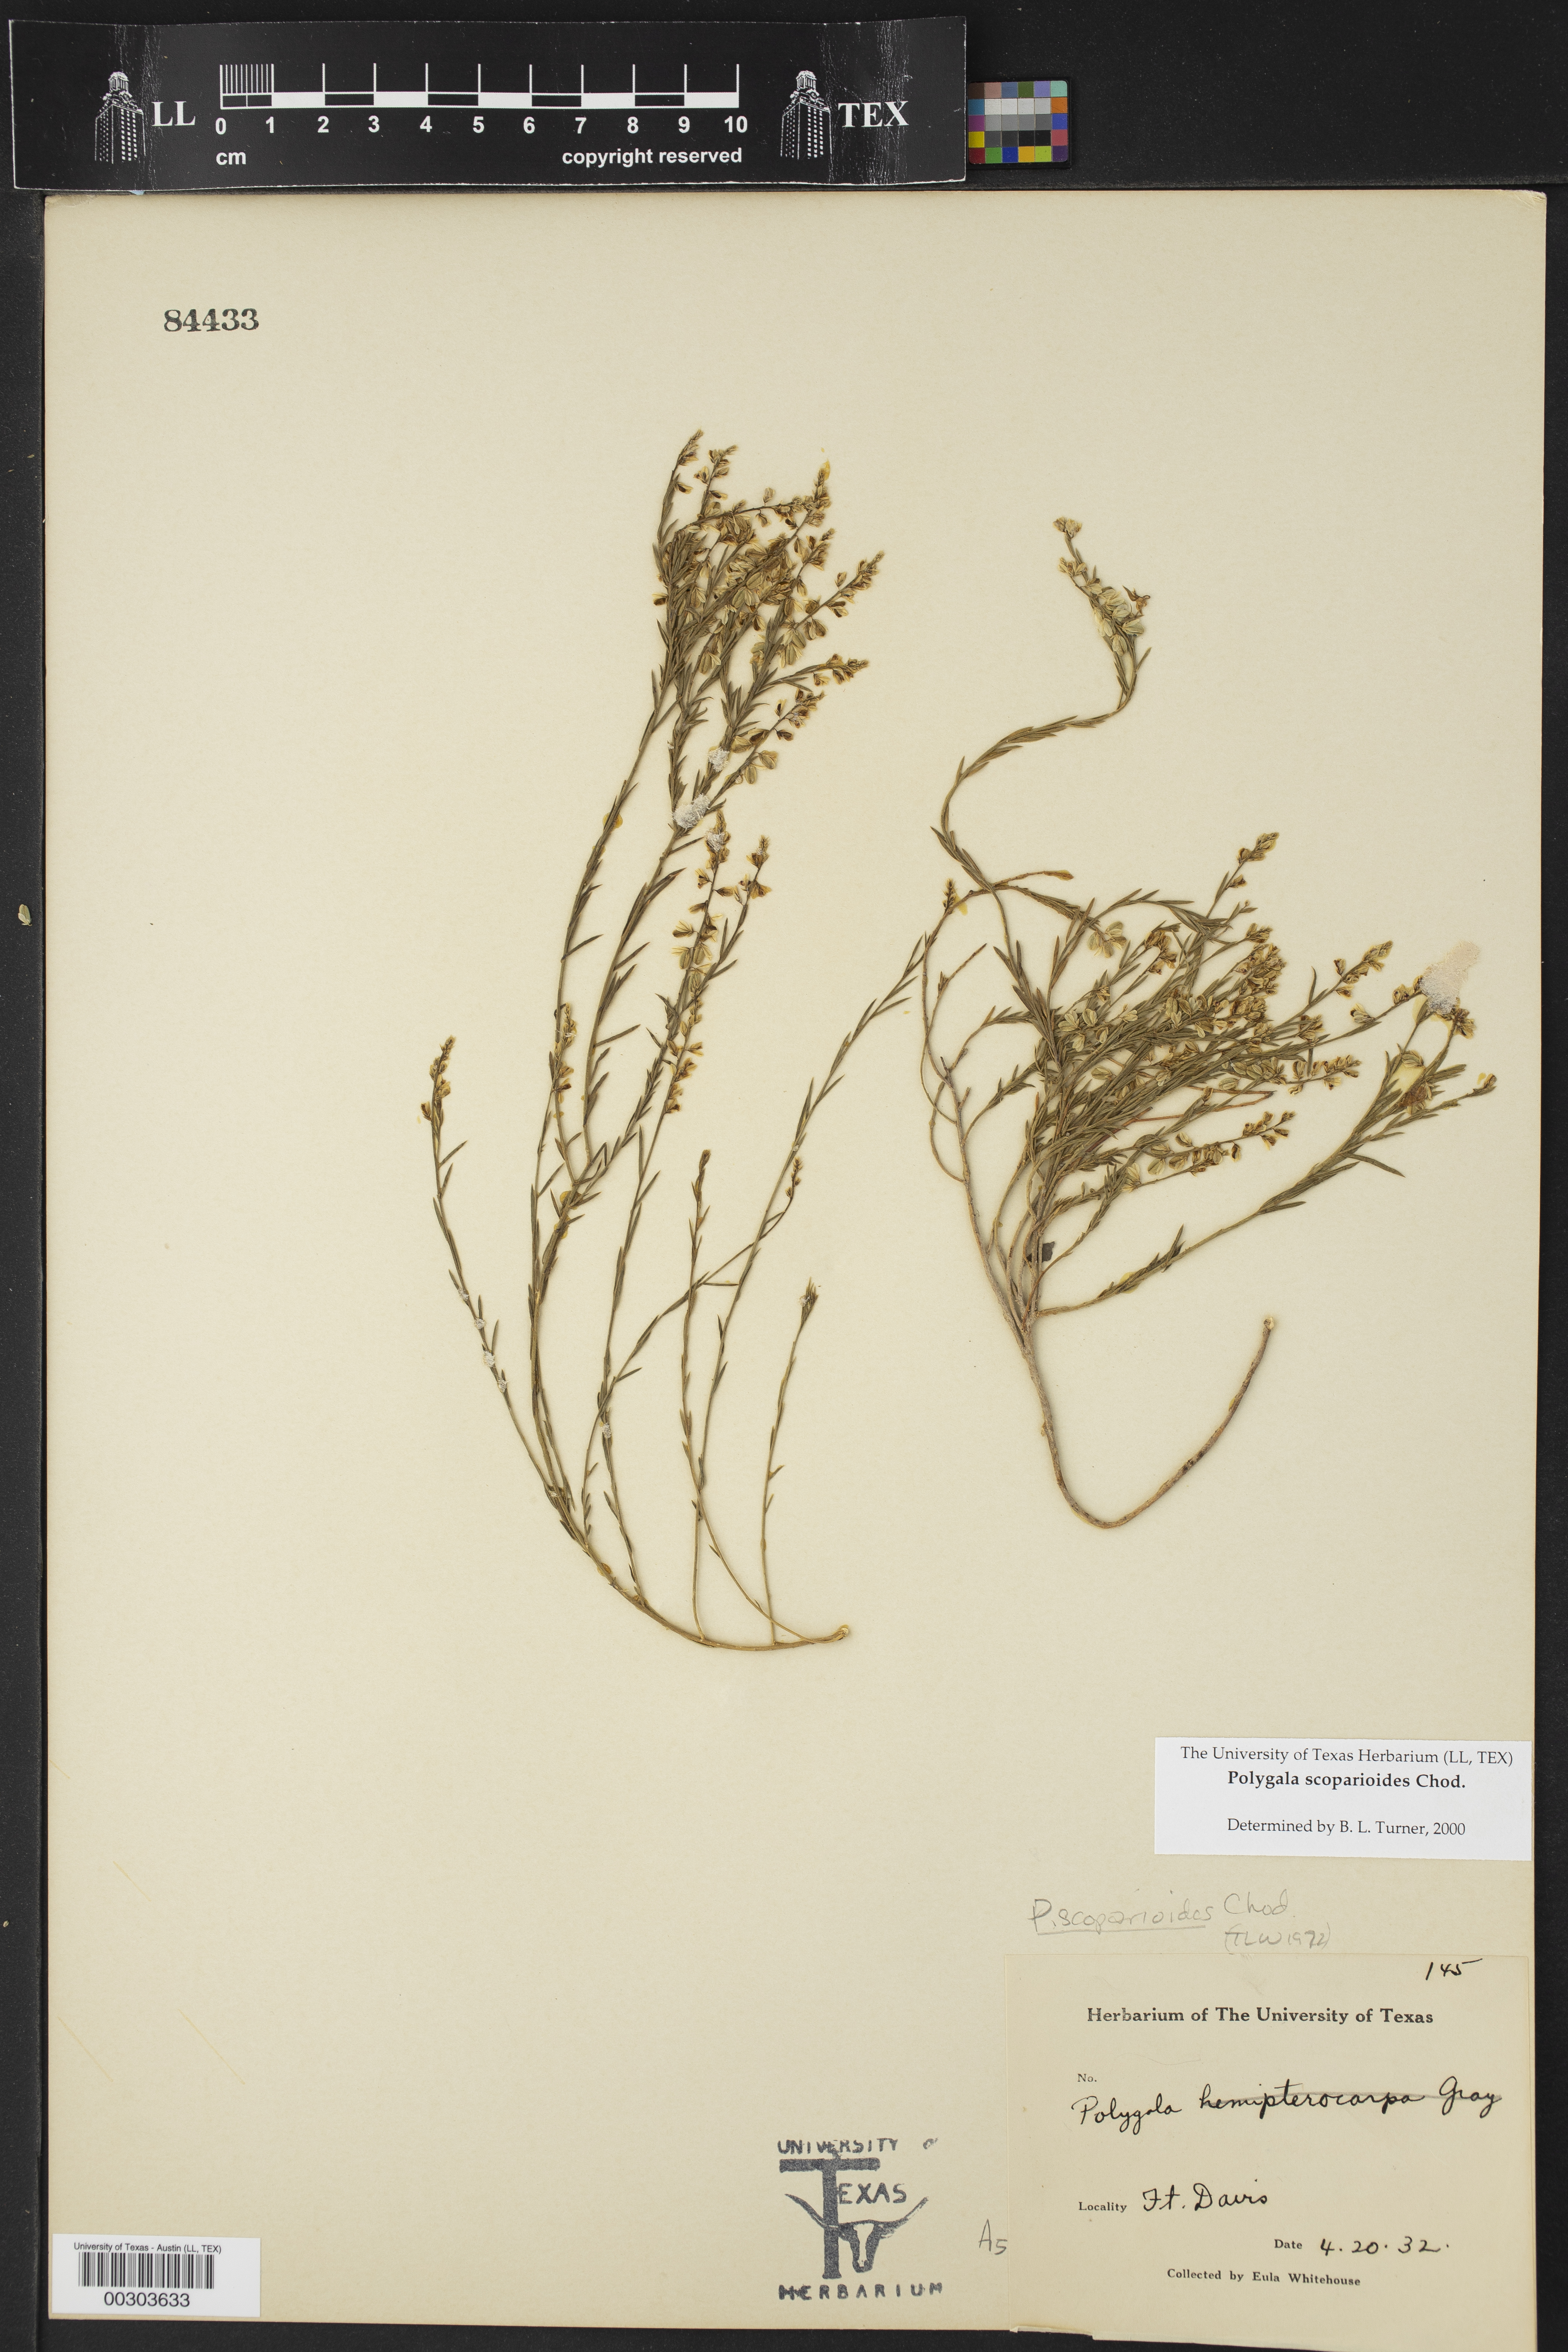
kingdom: Plantae
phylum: Tracheophyta
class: Magnoliopsida
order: Fabales
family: Polygalaceae
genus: Polygala
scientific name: Polygala scoparioides
